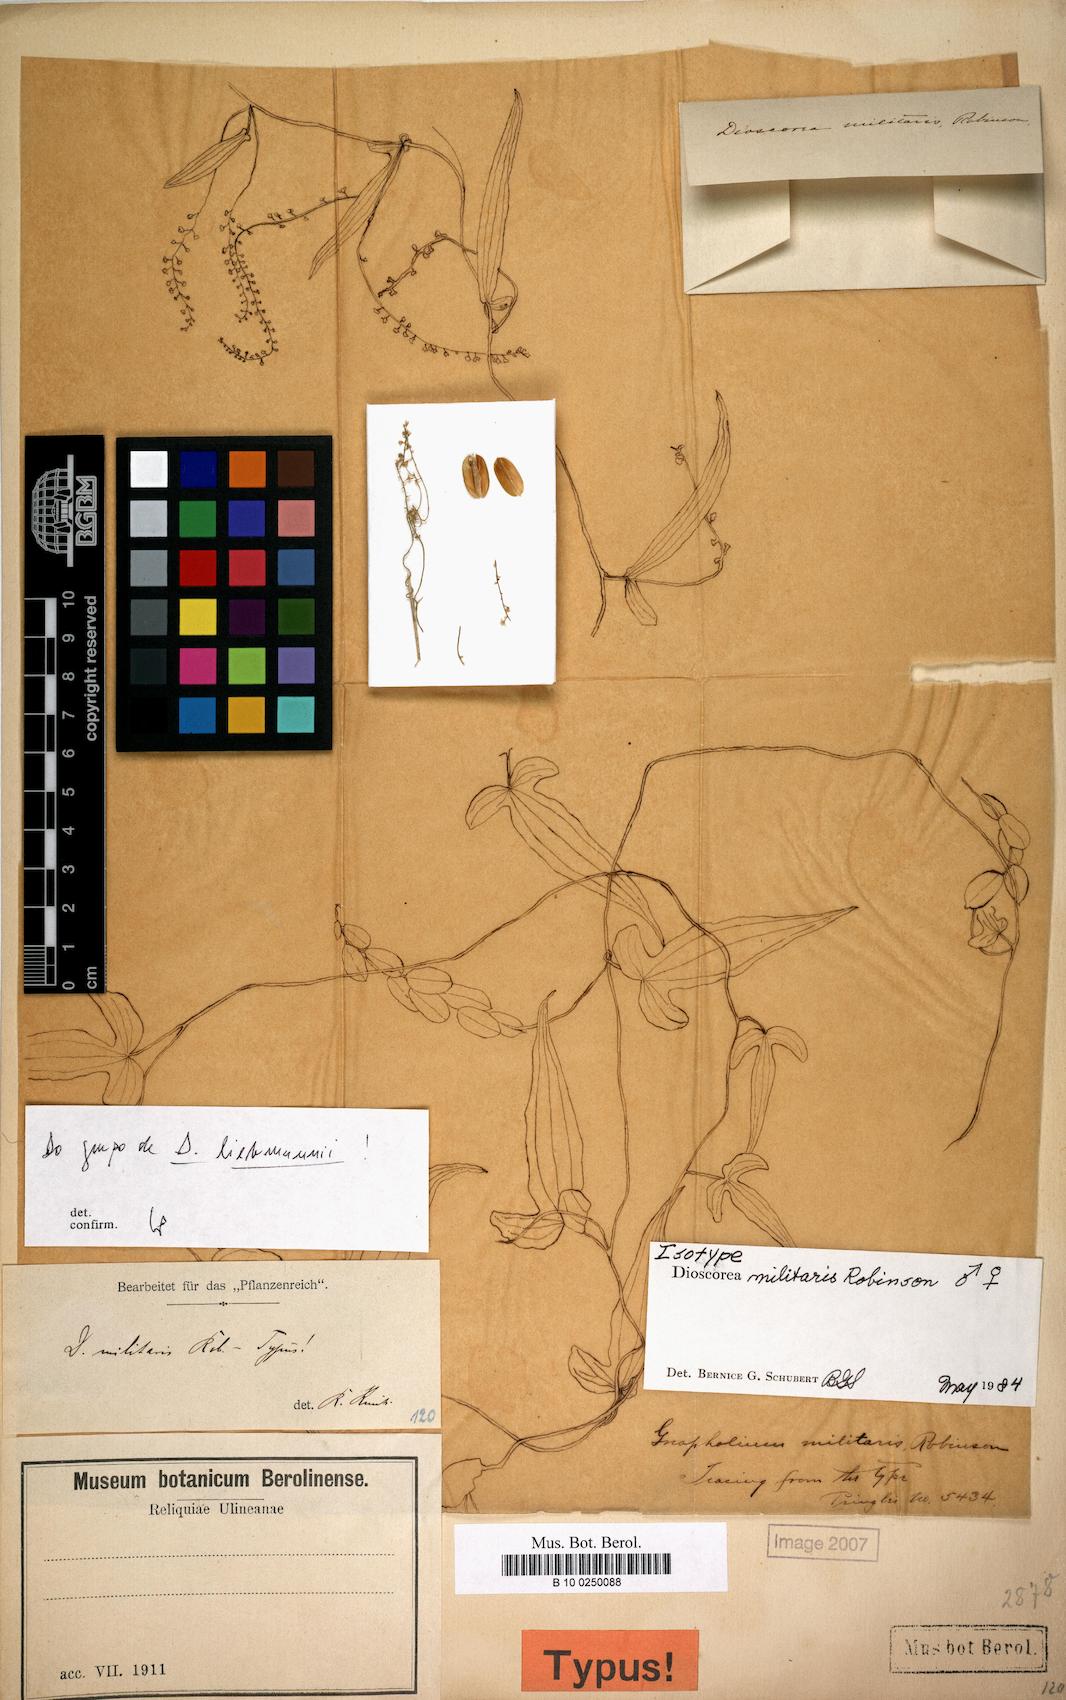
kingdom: Plantae
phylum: Tracheophyta
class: Liliopsida
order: Dioscoreales
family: Dioscoreaceae
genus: Dioscorea
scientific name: Dioscorea militaris
